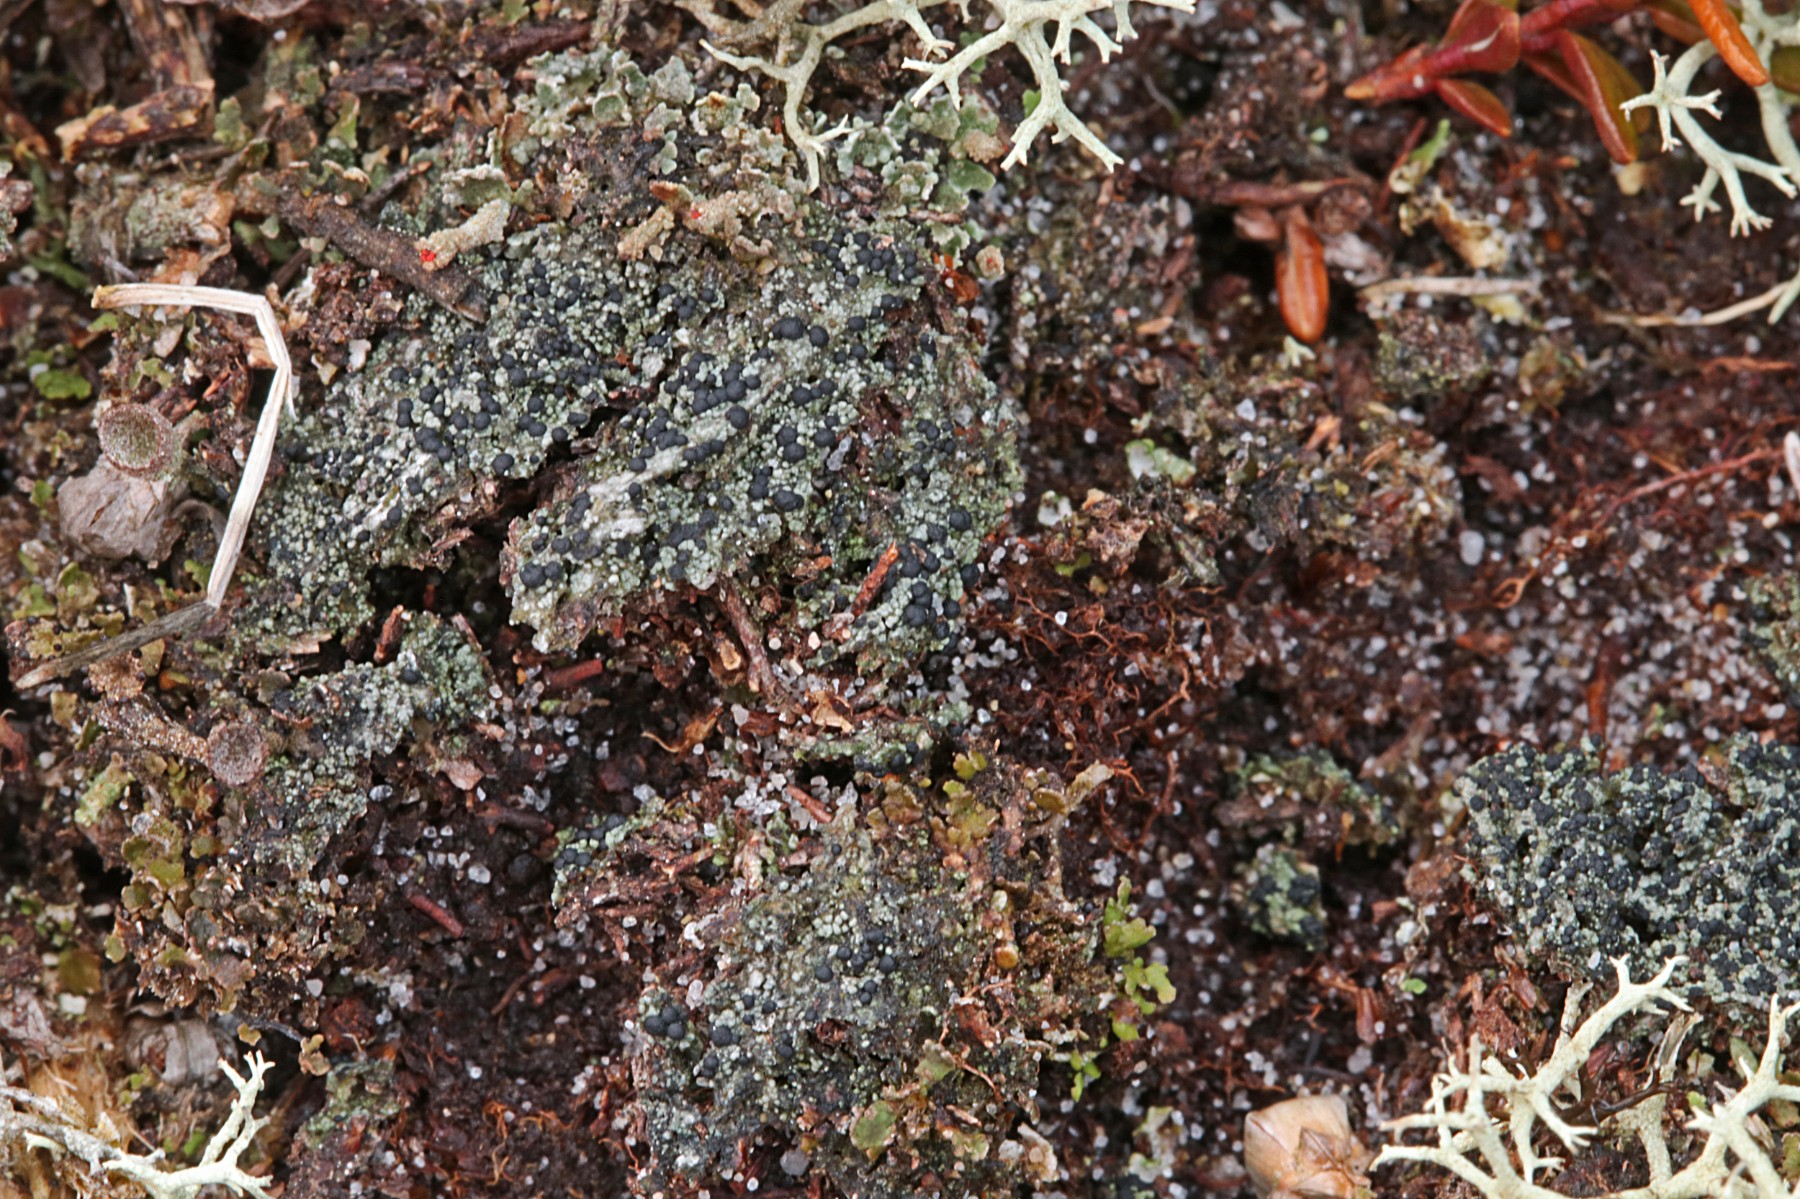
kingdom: Fungi
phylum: Ascomycota
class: Lecanoromycetes
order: Lecanorales
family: Byssolomataceae
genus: Micarea
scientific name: Micarea lignaria
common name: tørve-knaplav
